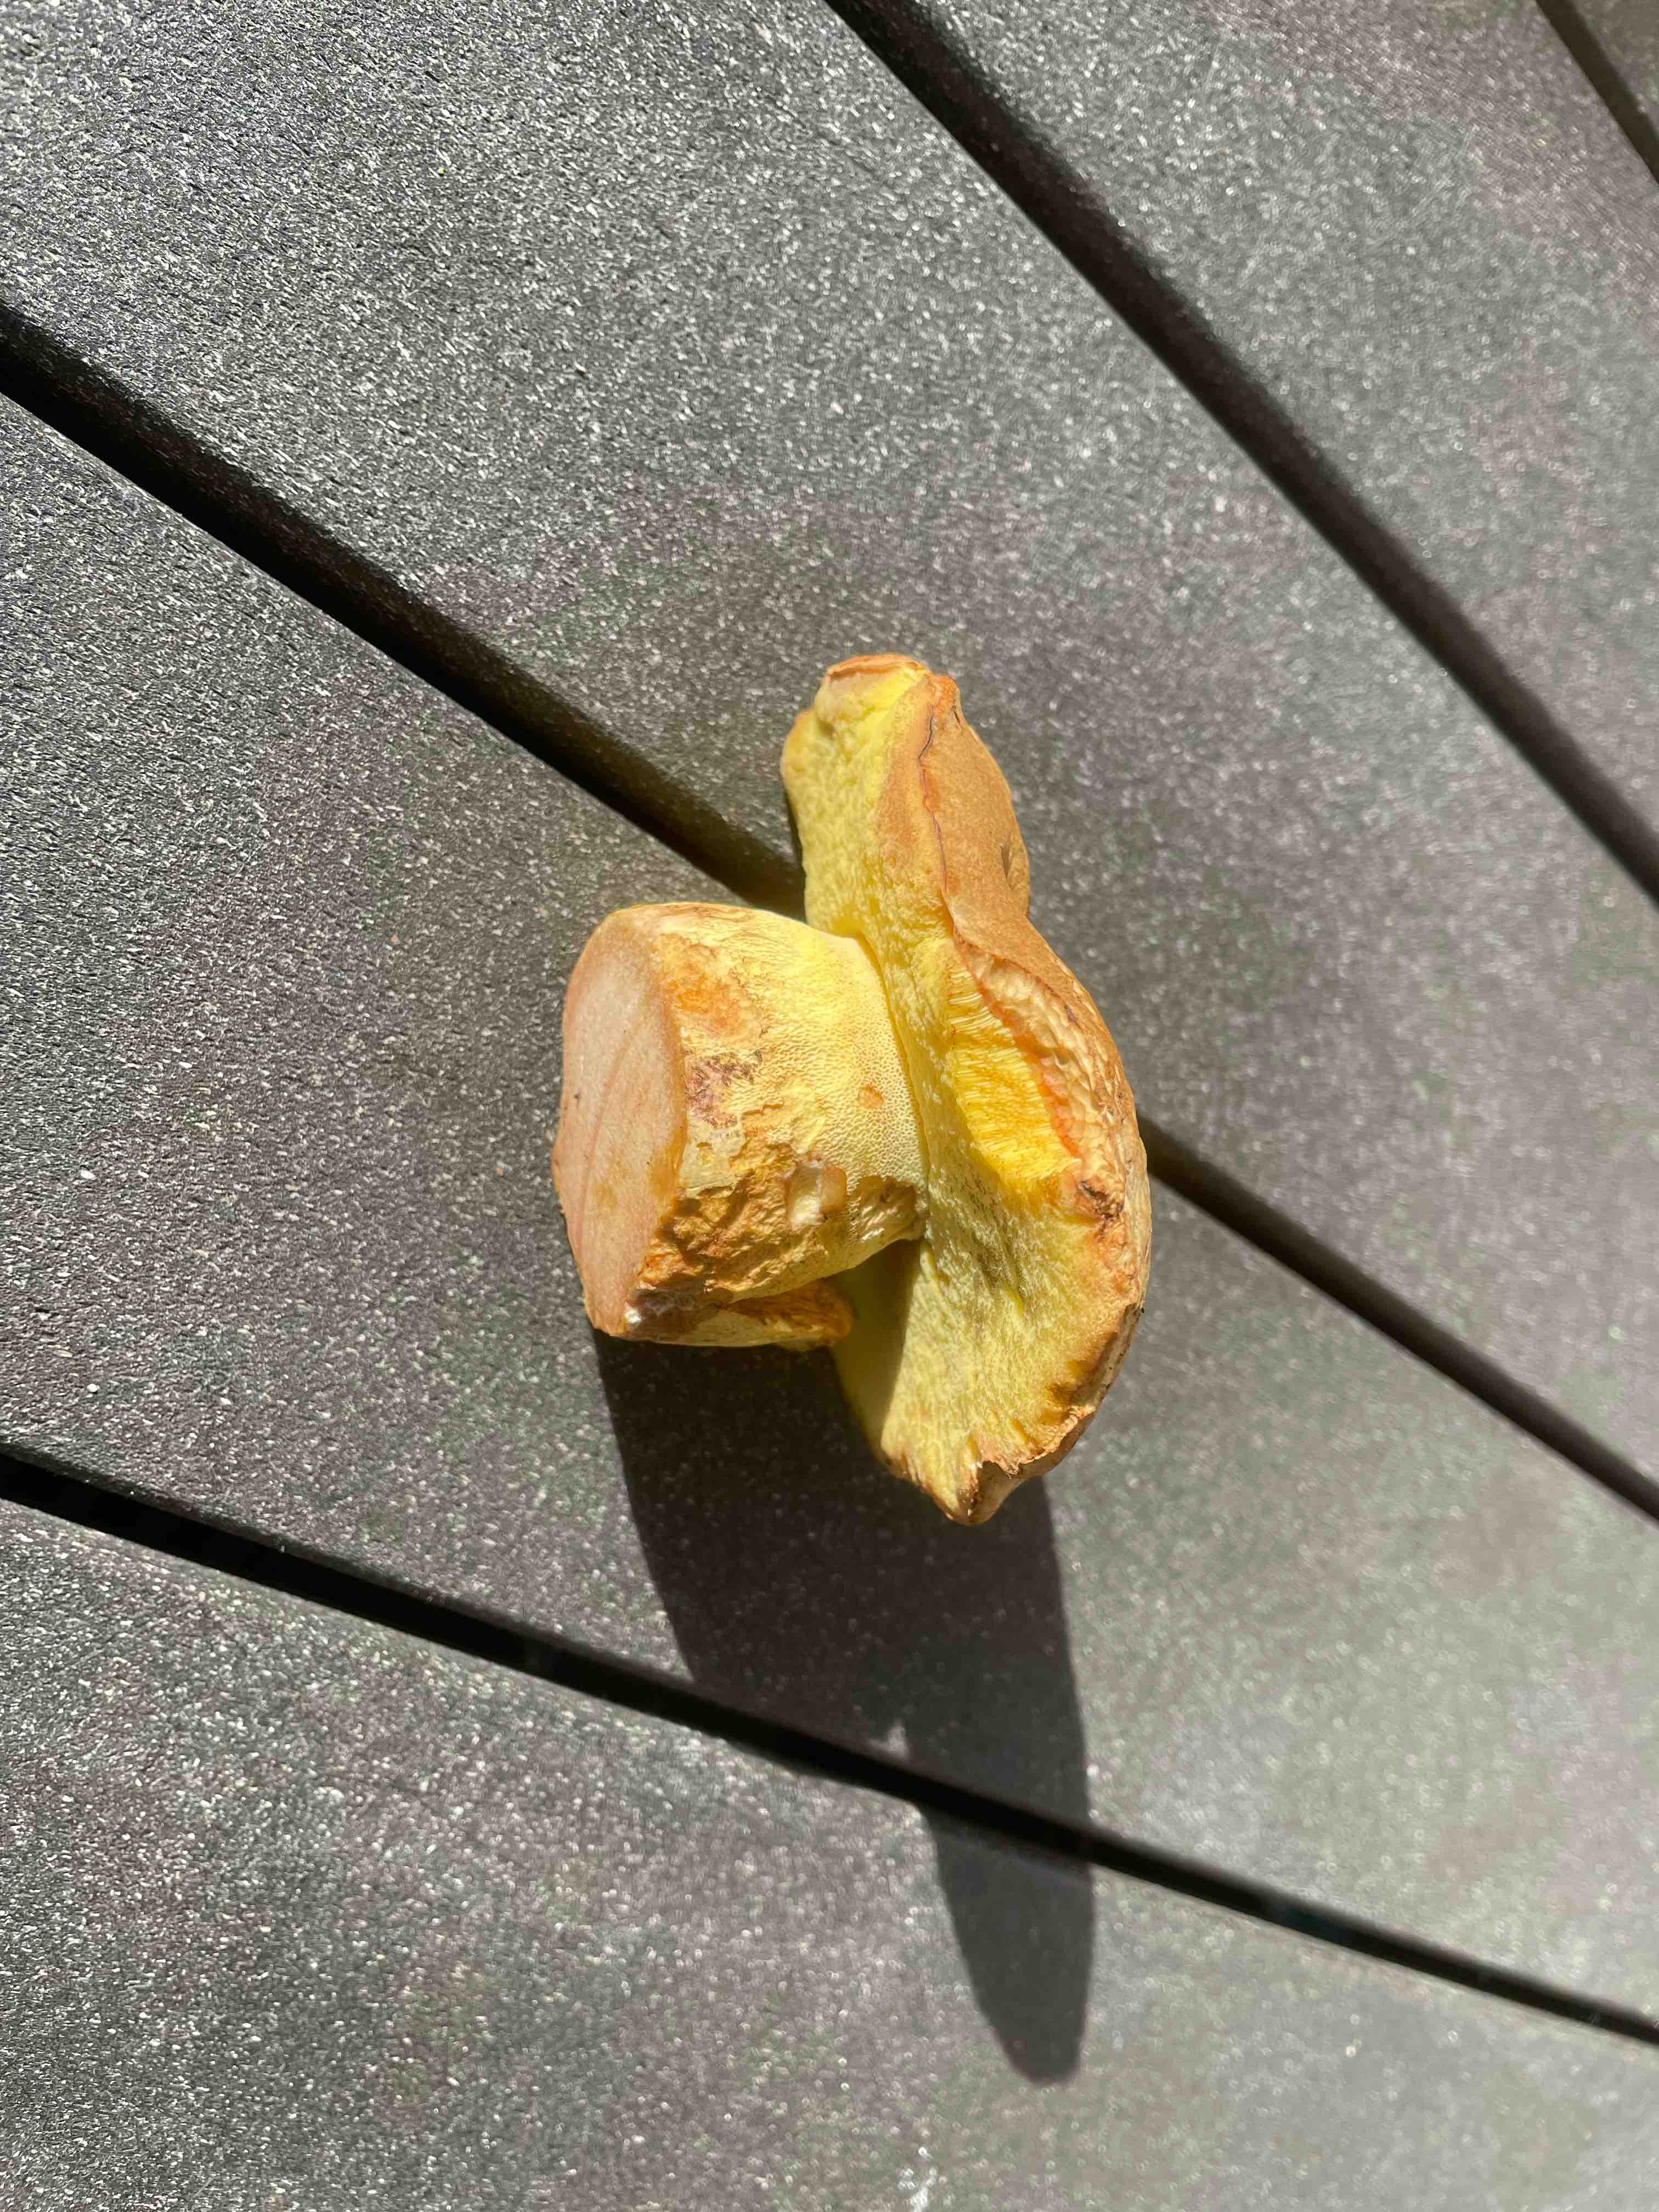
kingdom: Fungi
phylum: Basidiomycota
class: Agaricomycetes
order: Boletales
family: Boletaceae
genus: Butyriboletus
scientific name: Butyriboletus appendiculatus
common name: tenstokket rørhat
